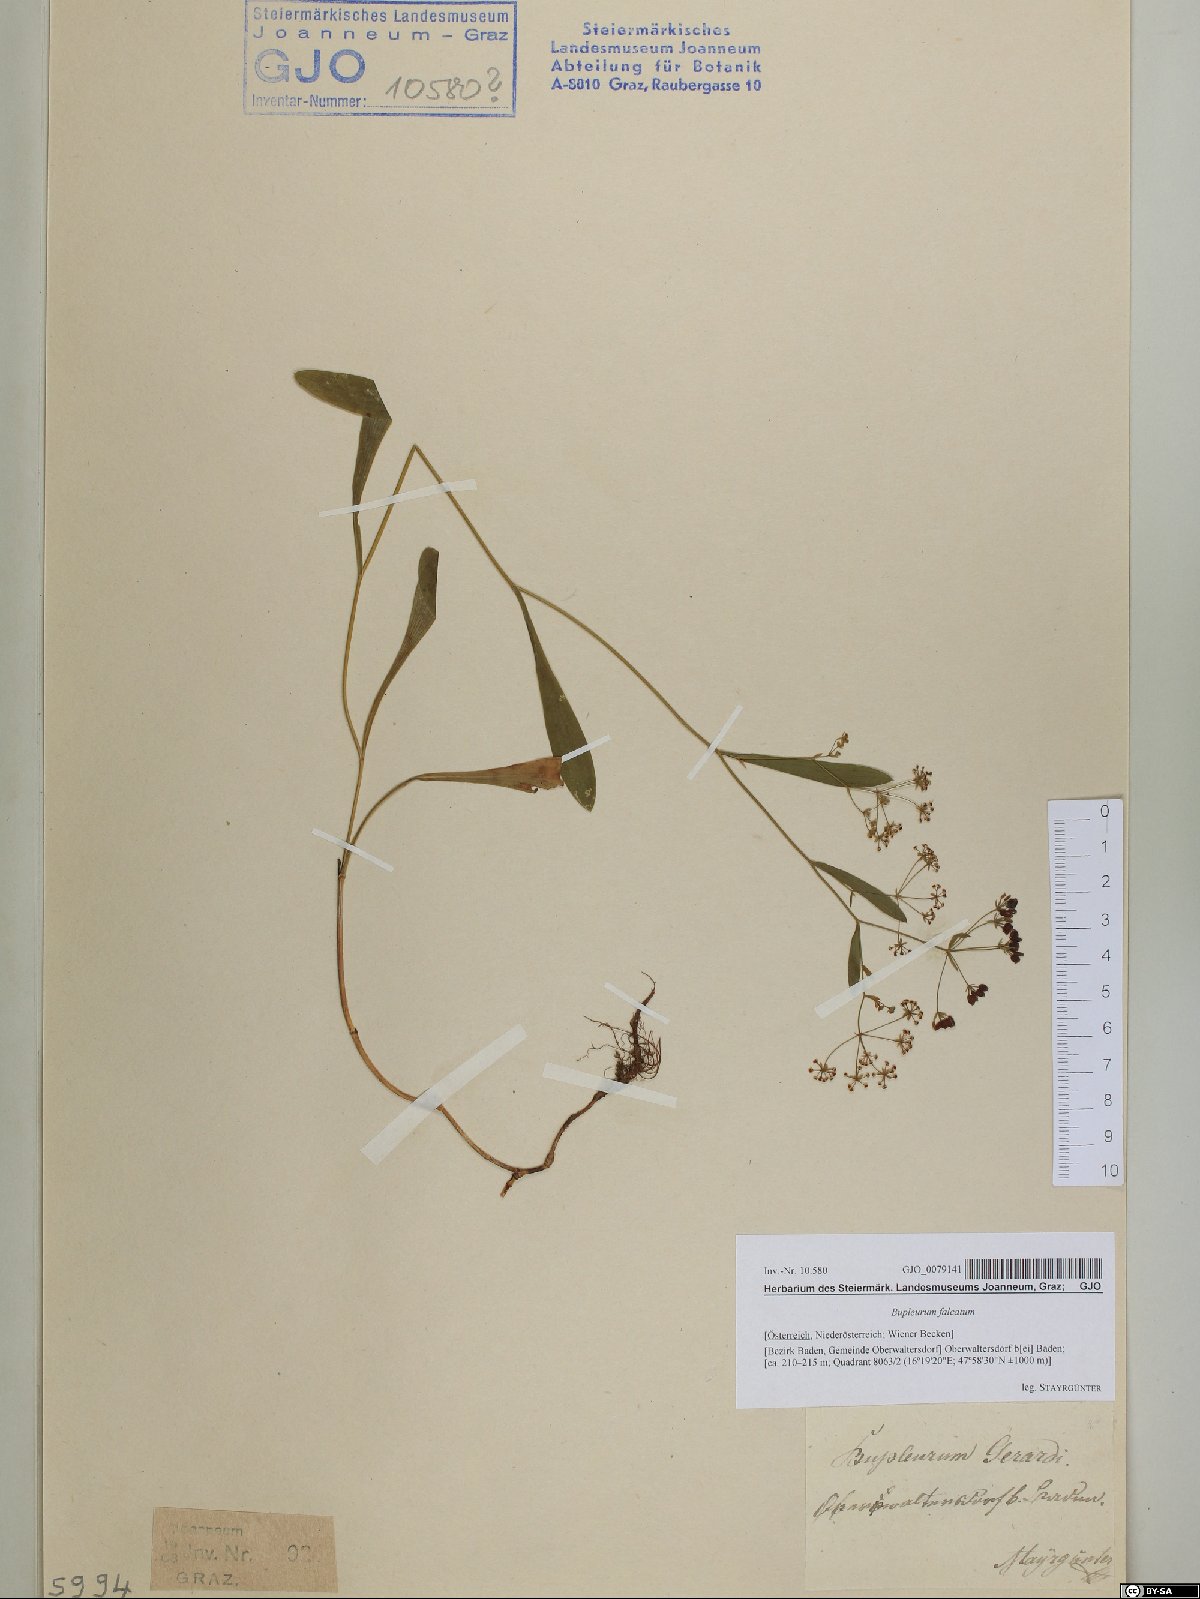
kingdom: Plantae
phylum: Tracheophyta
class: Magnoliopsida
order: Apiales
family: Apiaceae
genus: Bupleurum
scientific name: Bupleurum falcatum
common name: Sickle-leaved hare's-ear
